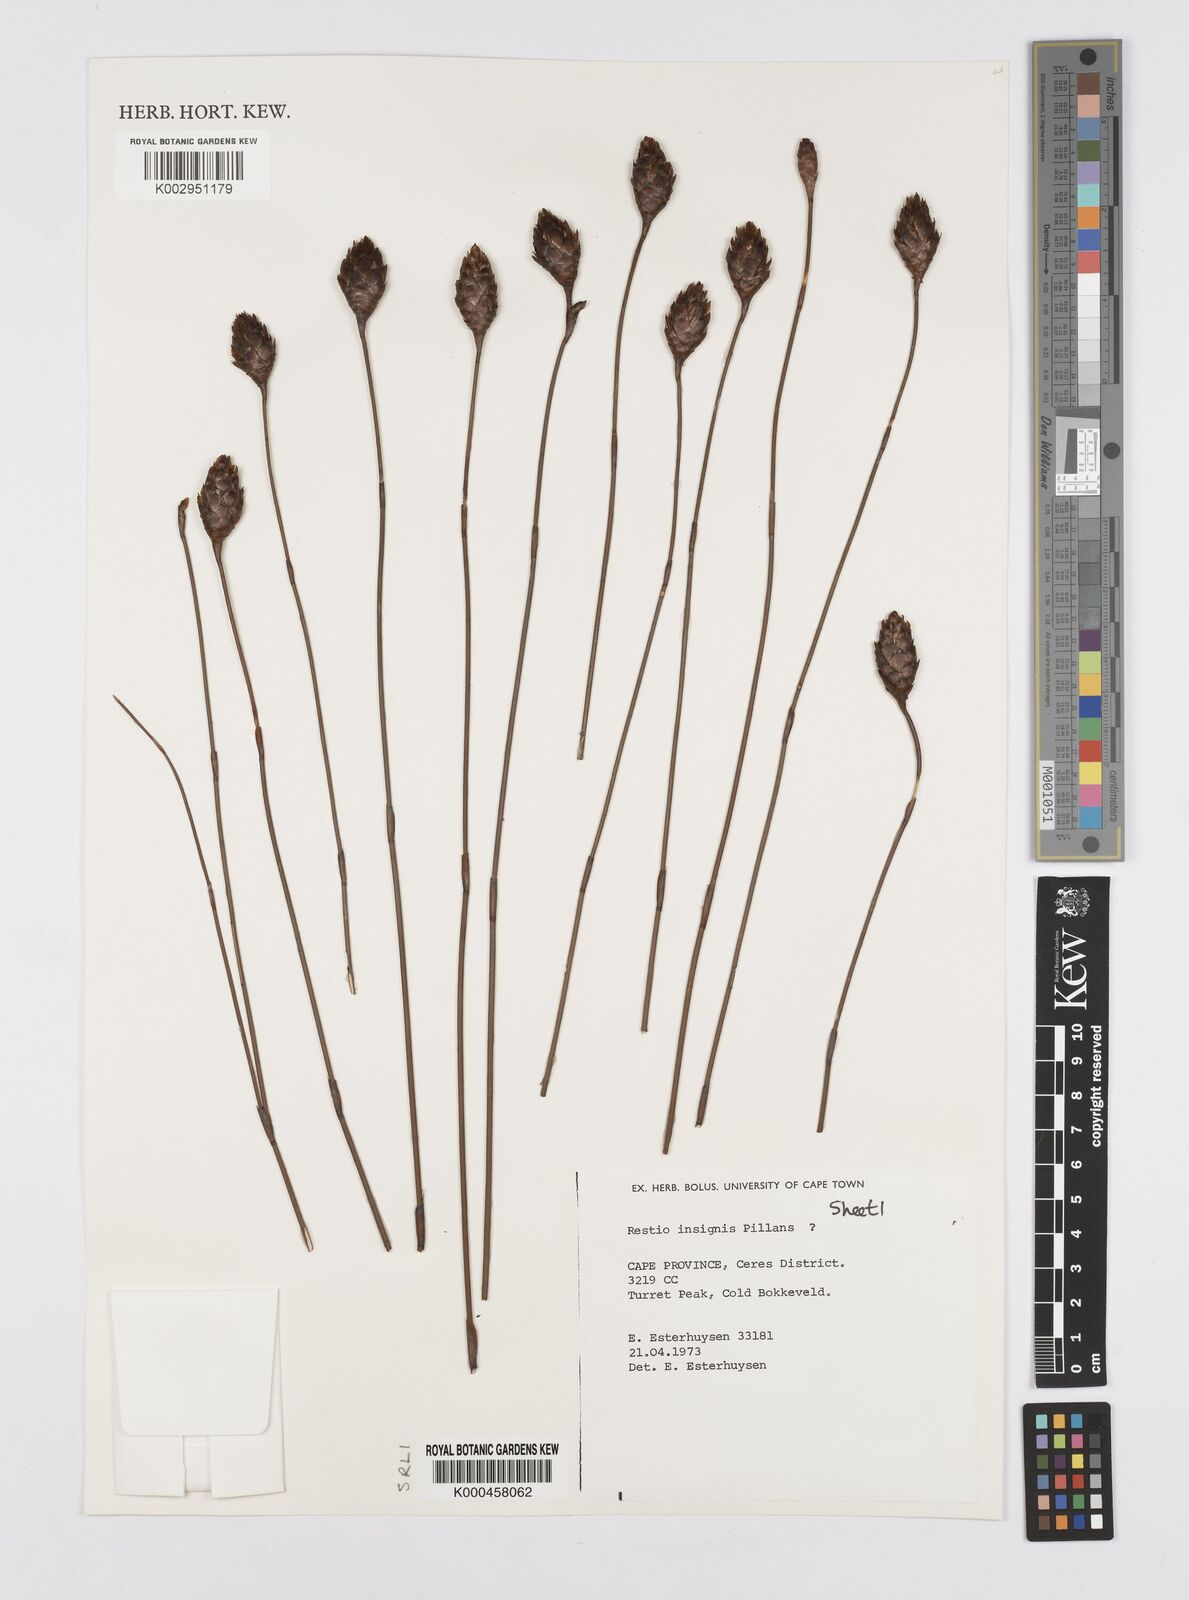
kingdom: Plantae
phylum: Tracheophyta
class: Liliopsida
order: Poales
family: Restionaceae
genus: Restio
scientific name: Restio insignis
